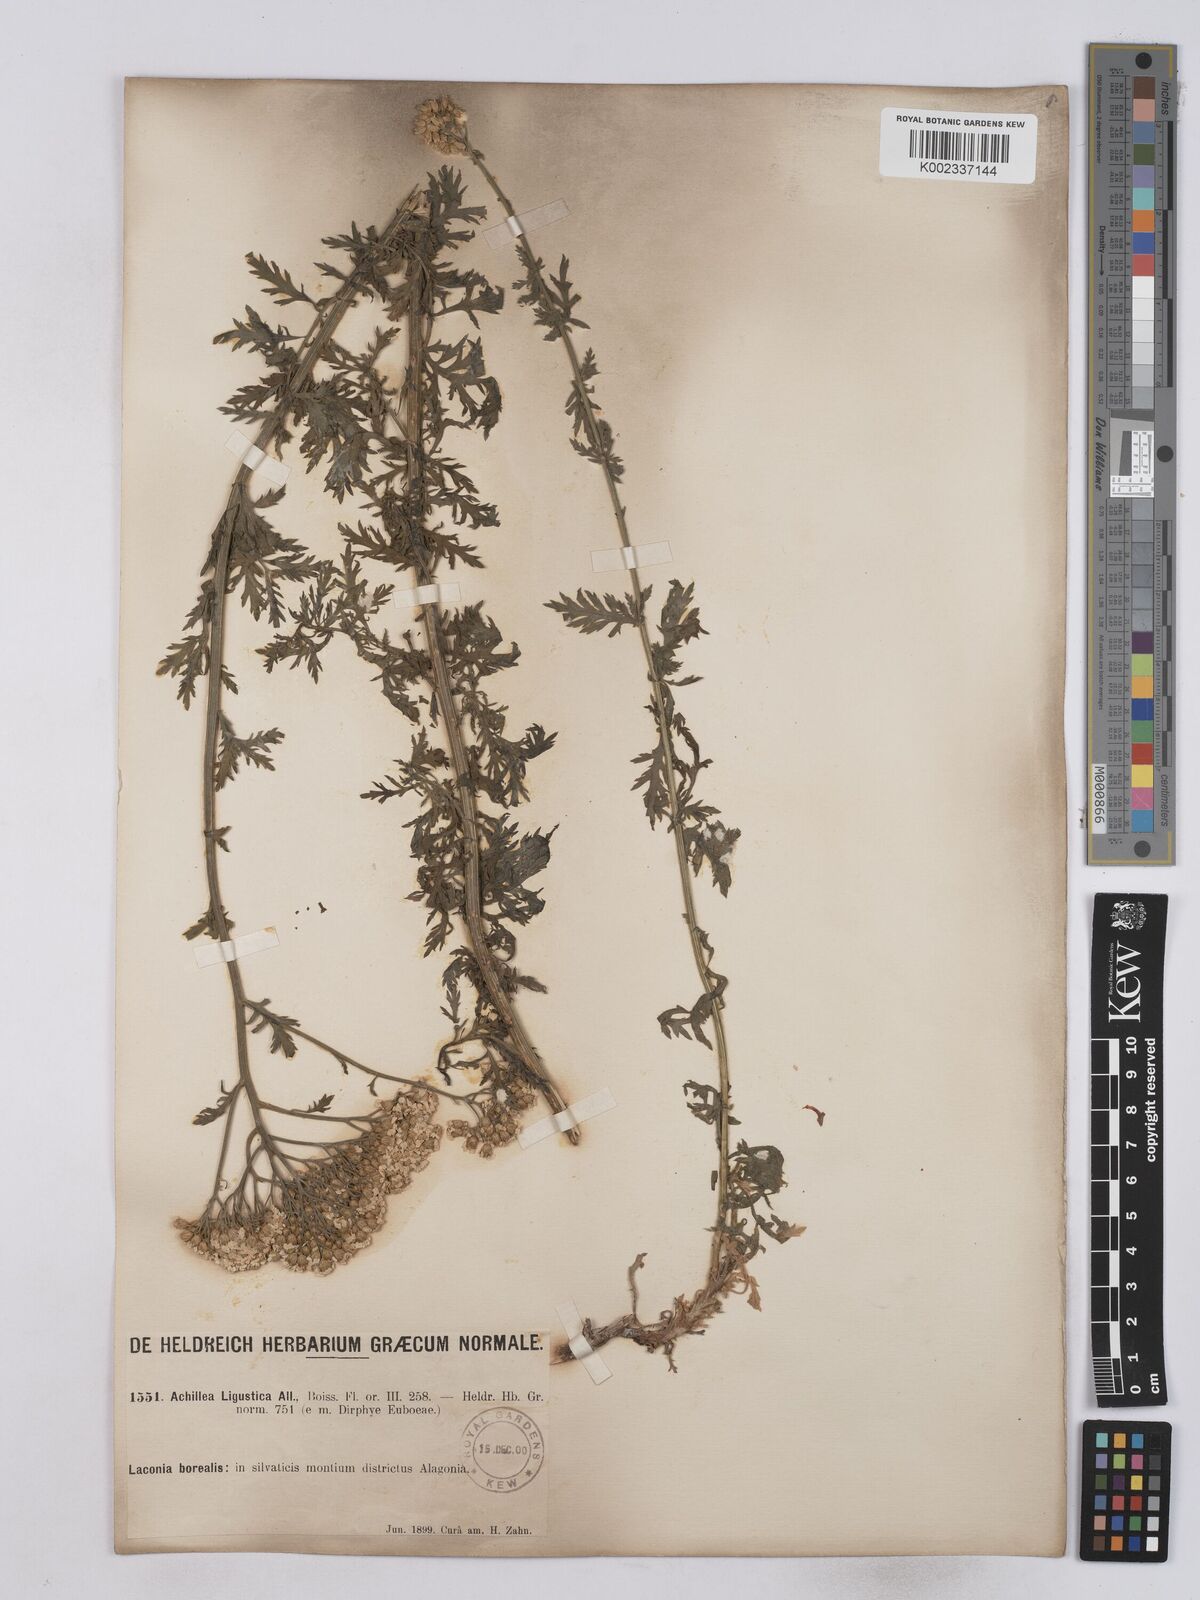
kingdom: Plantae
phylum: Tracheophyta
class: Magnoliopsida
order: Asterales
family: Asteraceae
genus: Achillea
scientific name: Achillea ligustica
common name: Southern yarrow
